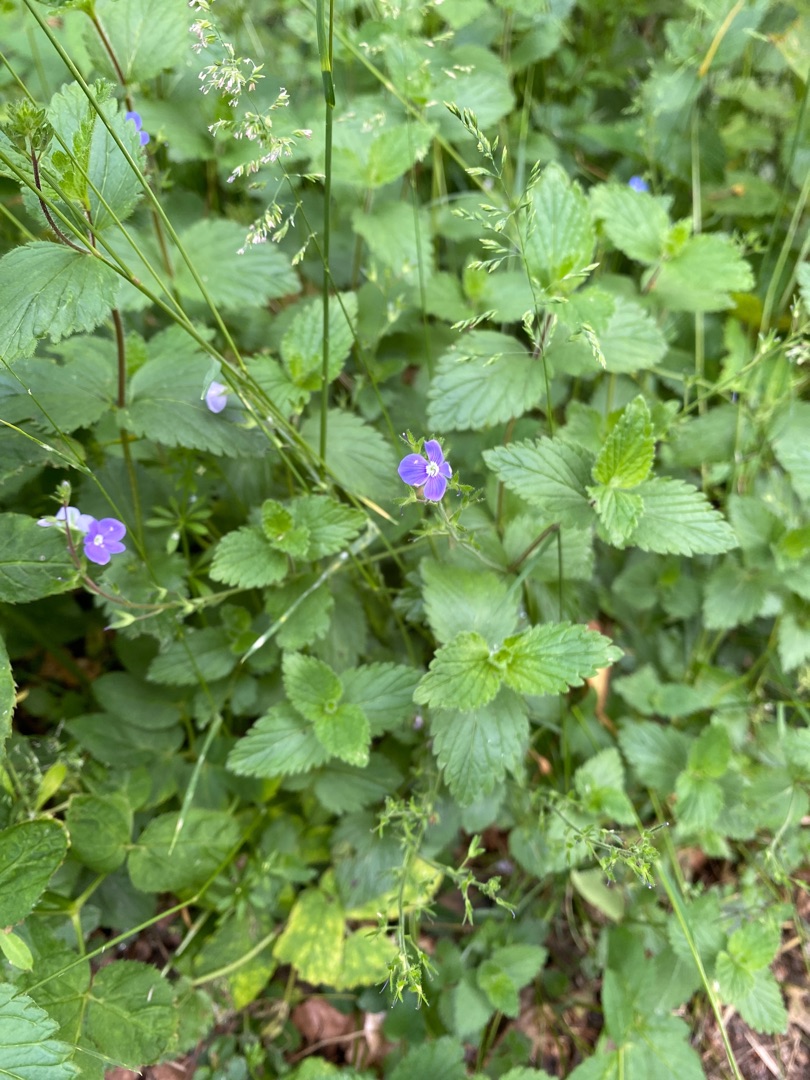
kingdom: Plantae
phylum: Tracheophyta
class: Magnoliopsida
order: Lamiales
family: Plantaginaceae
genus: Veronica
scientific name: Veronica chamaedrys
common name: Tveskægget ærenpris
